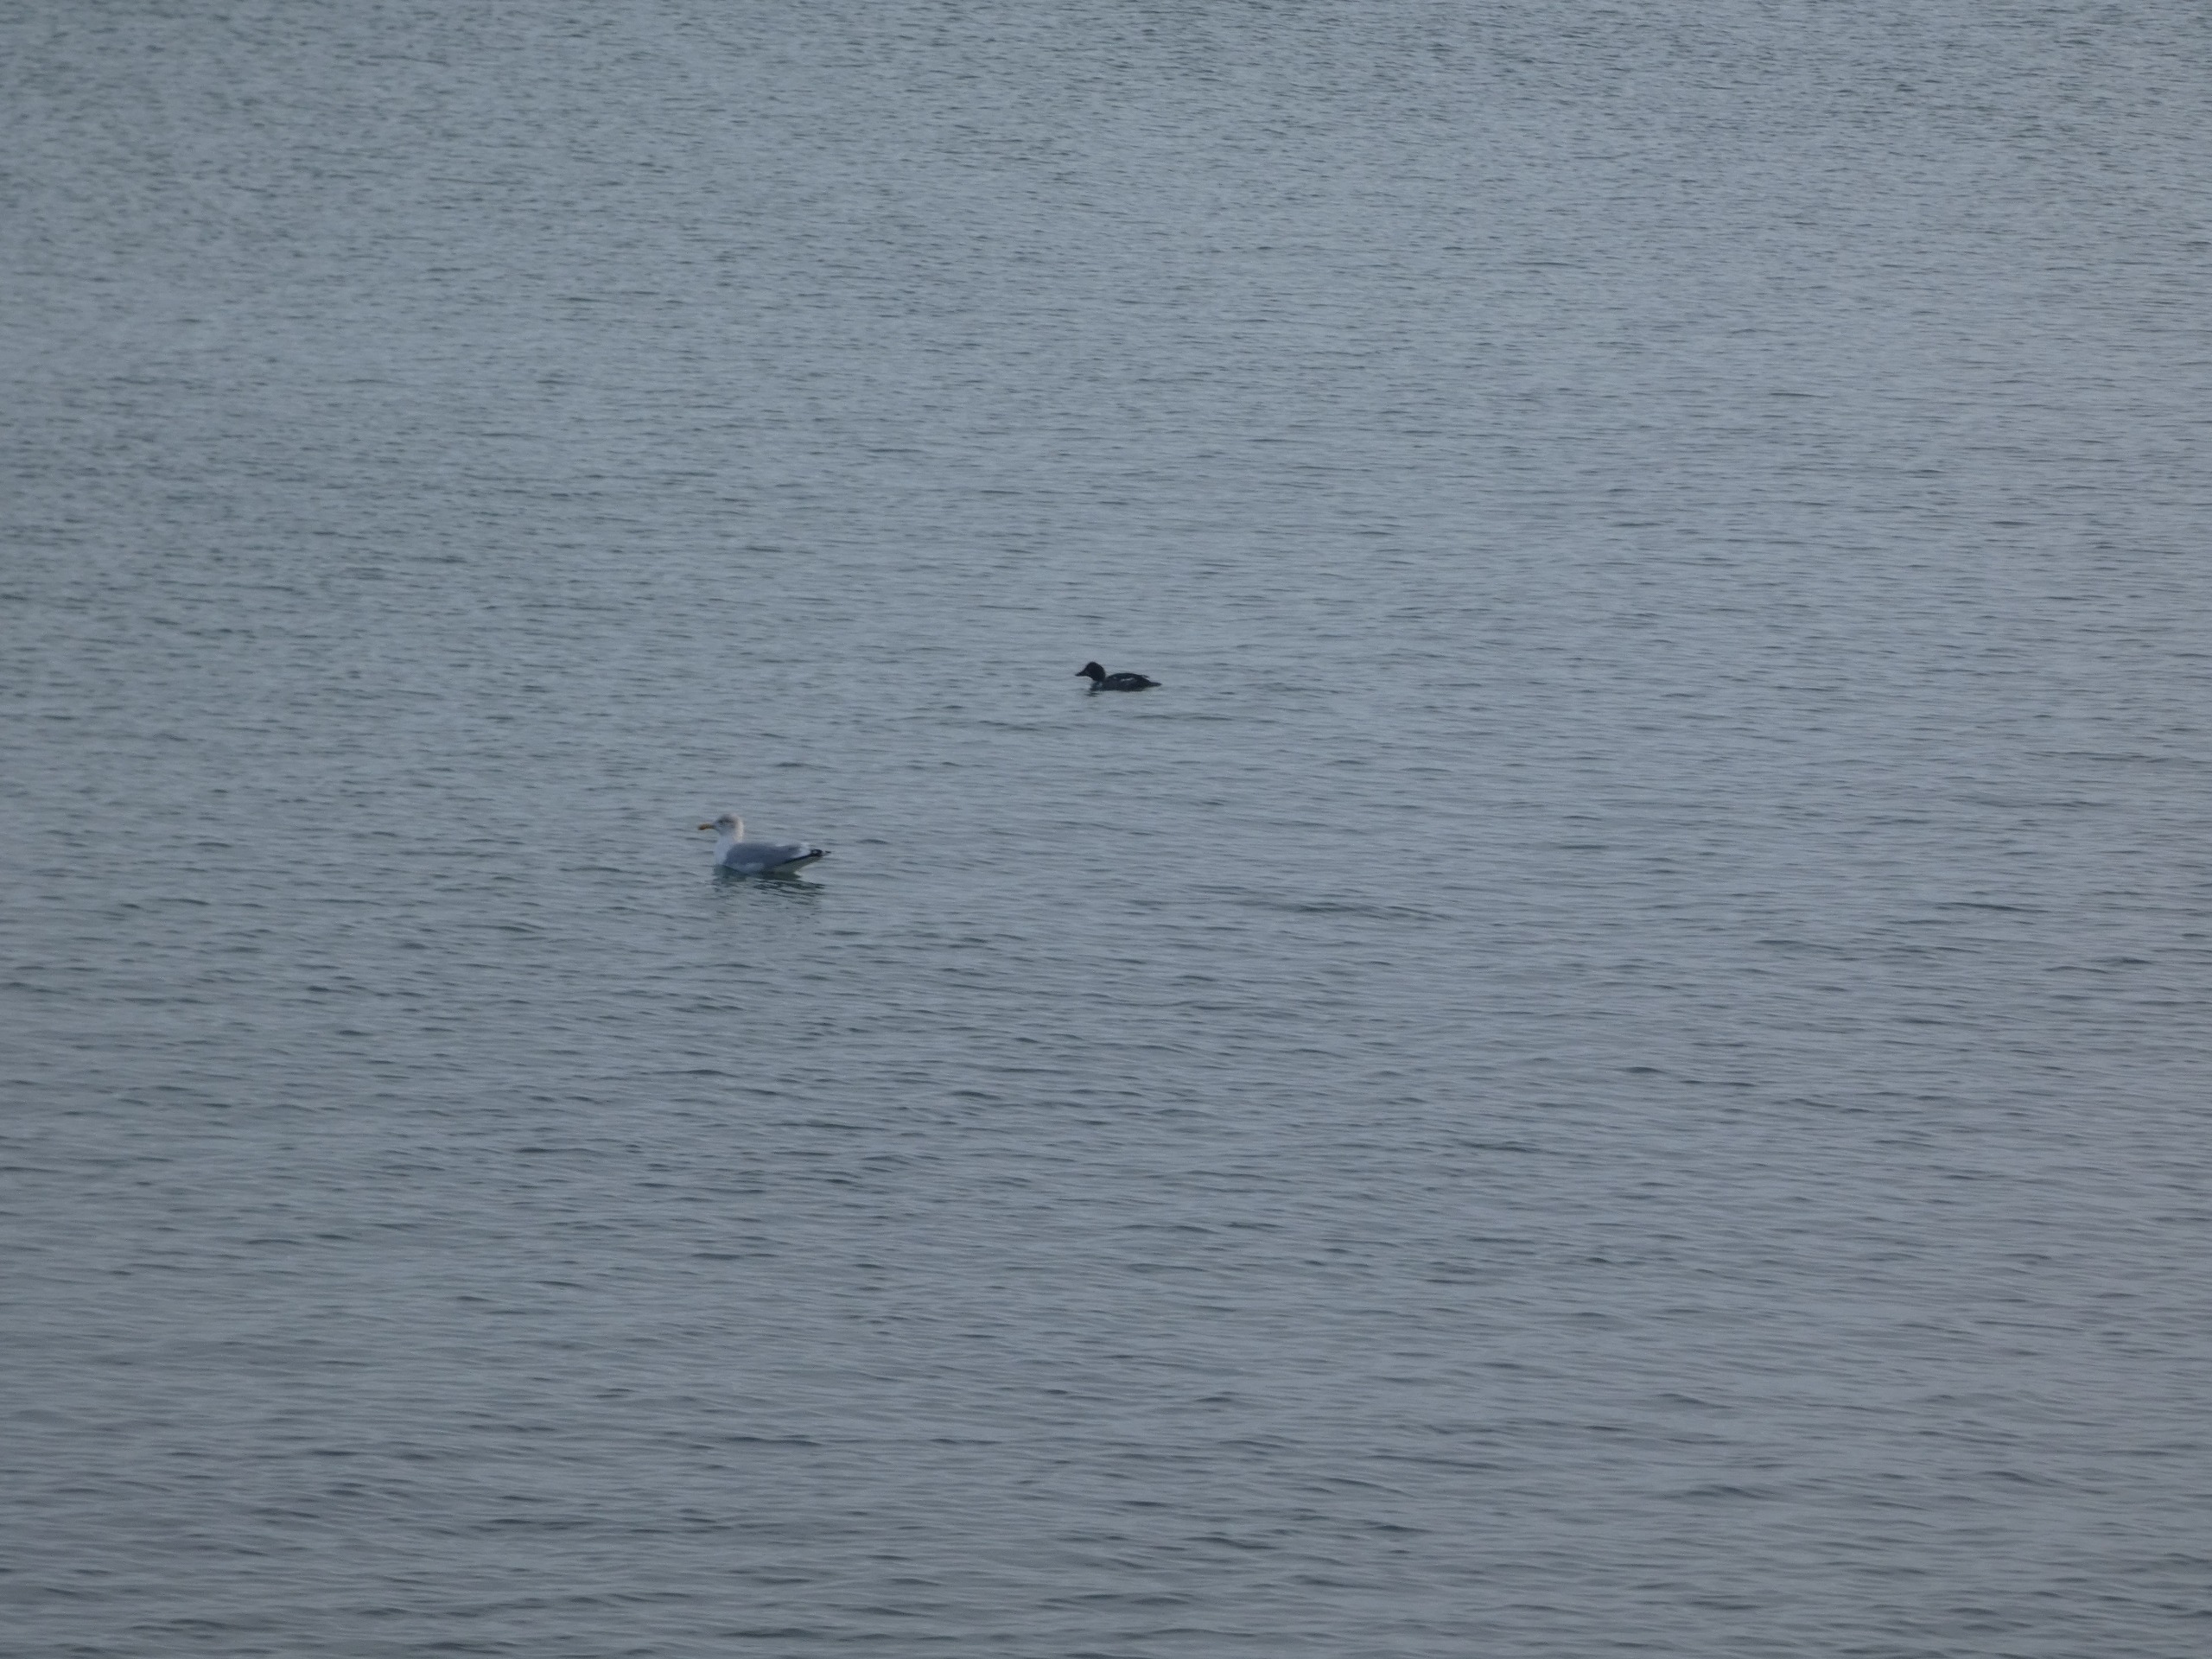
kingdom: Animalia
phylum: Chordata
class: Aves
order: Charadriiformes
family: Laridae
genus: Larus
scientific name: Larus argentatus
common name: Sølvmåge
